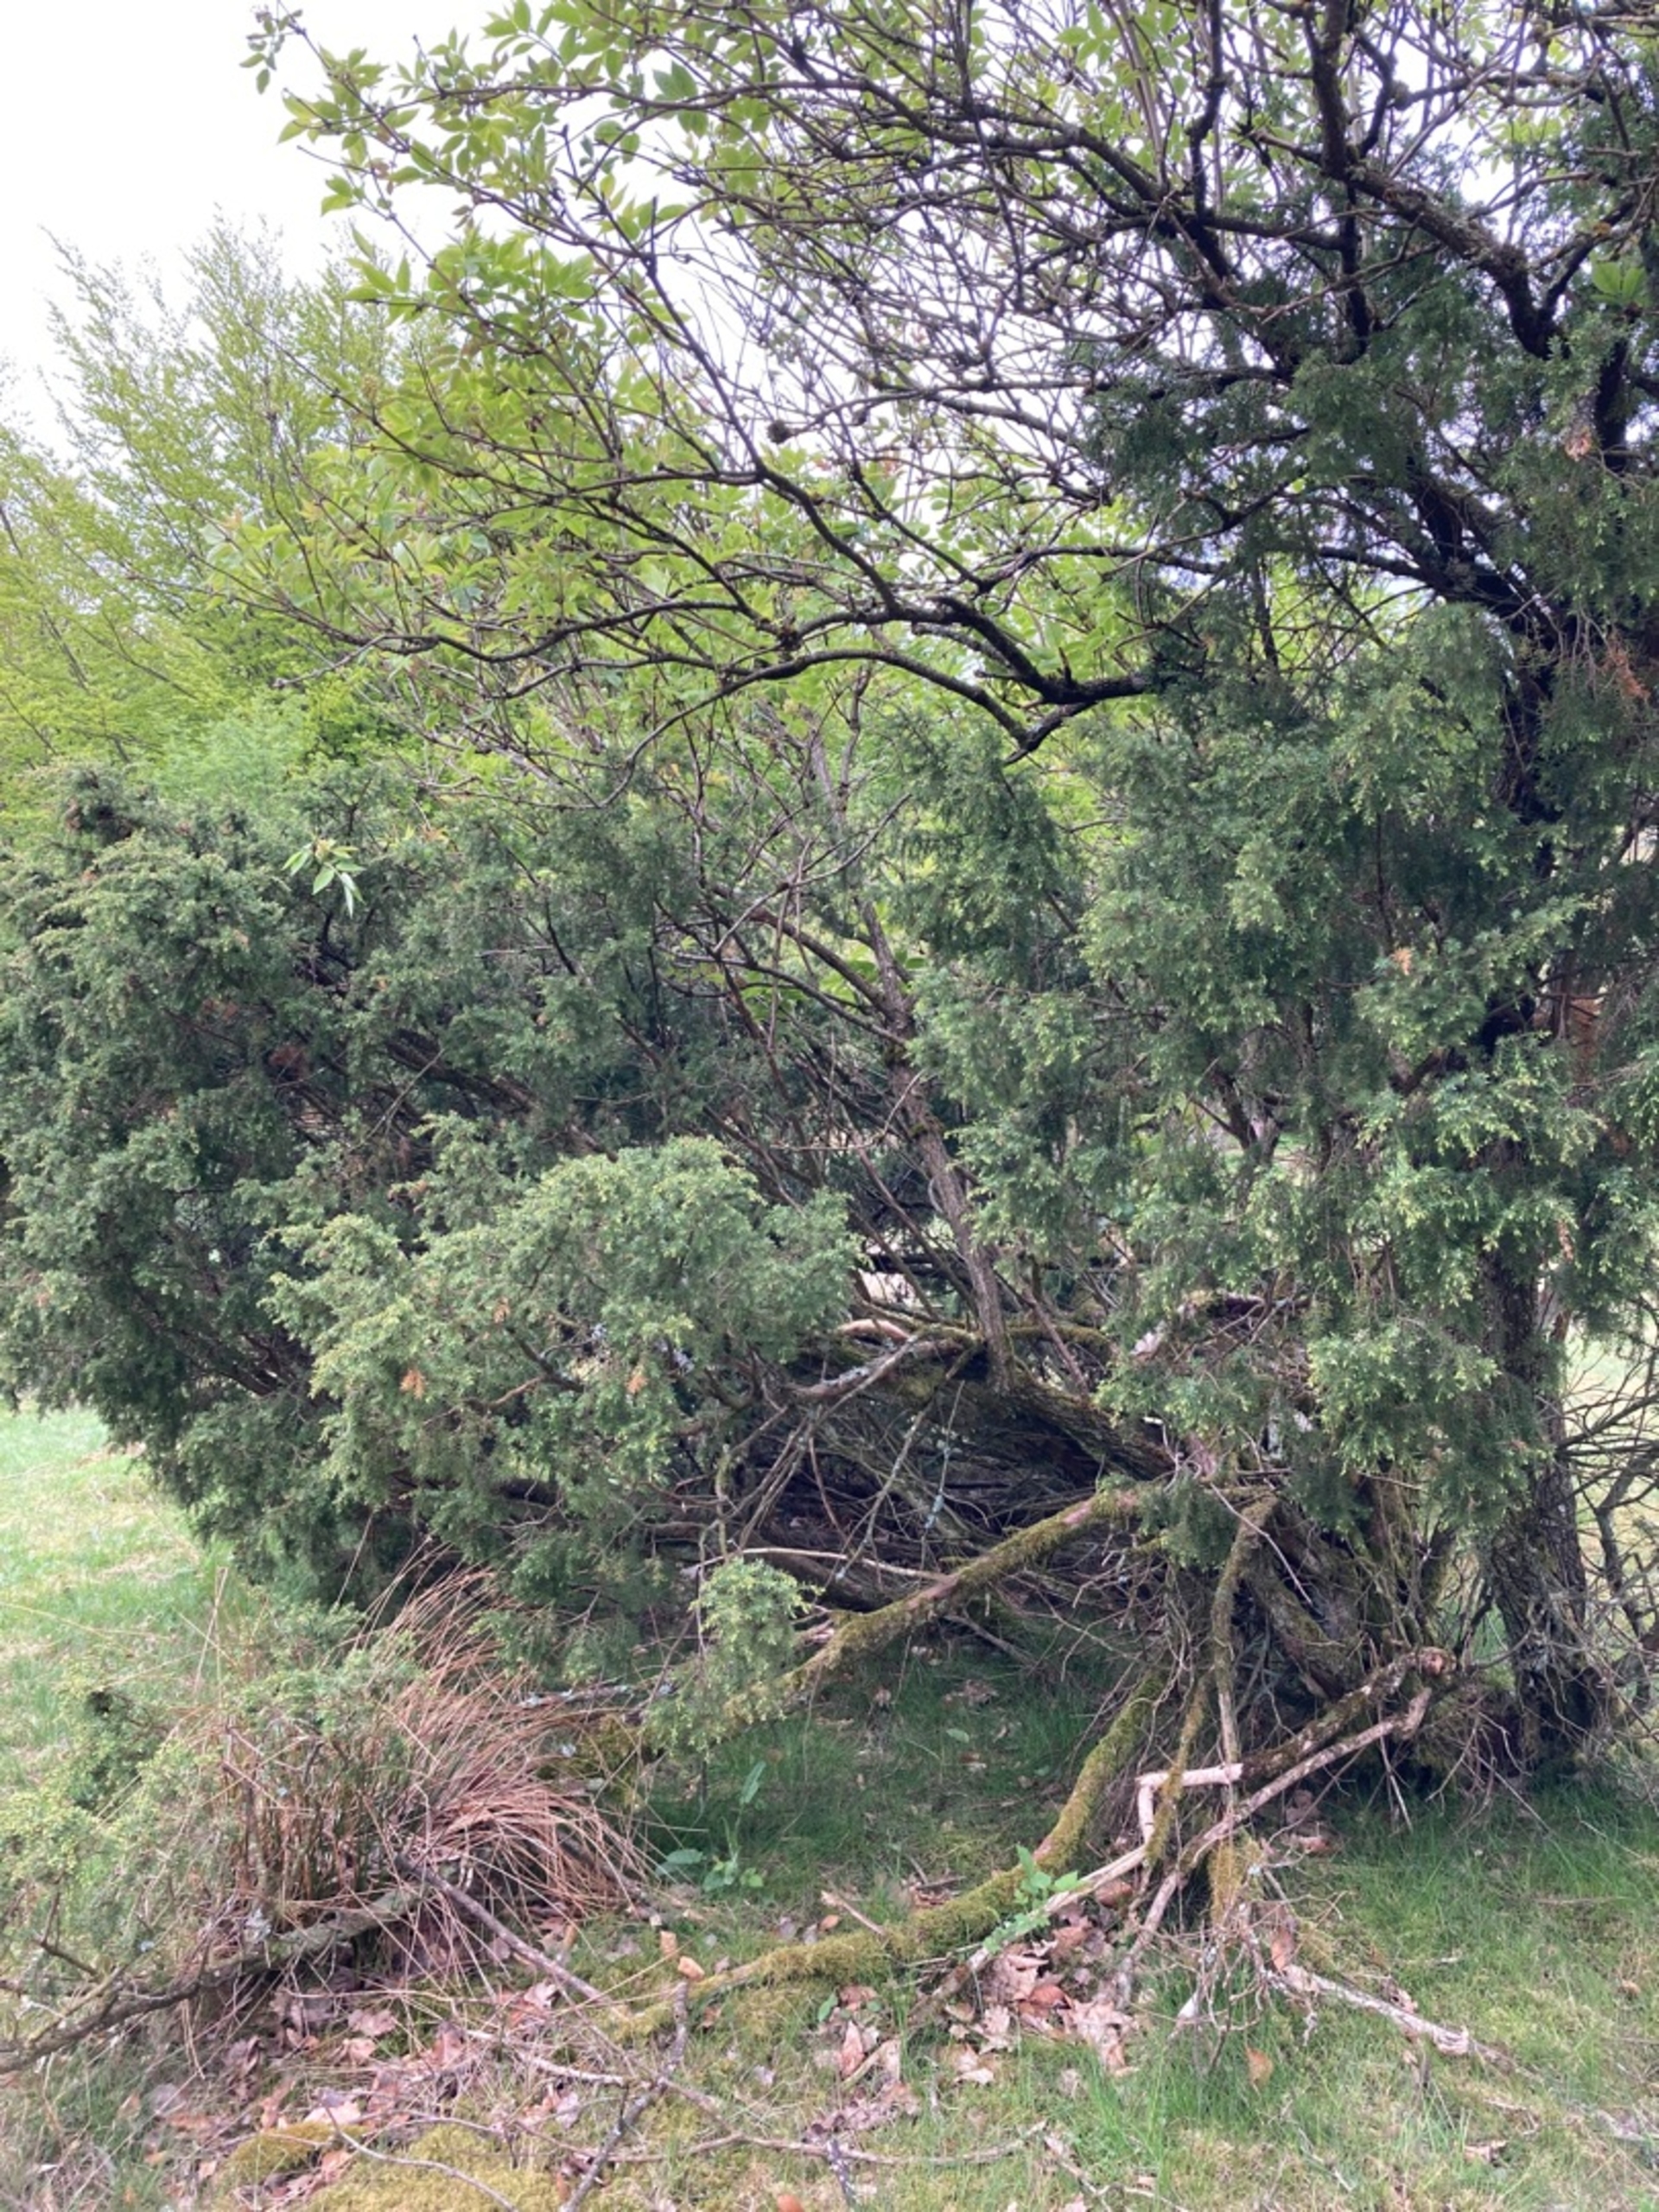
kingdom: Plantae
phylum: Tracheophyta
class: Pinopsida
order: Pinales
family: Cupressaceae
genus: Juniperus
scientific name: Juniperus communis
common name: Almindelig ene
